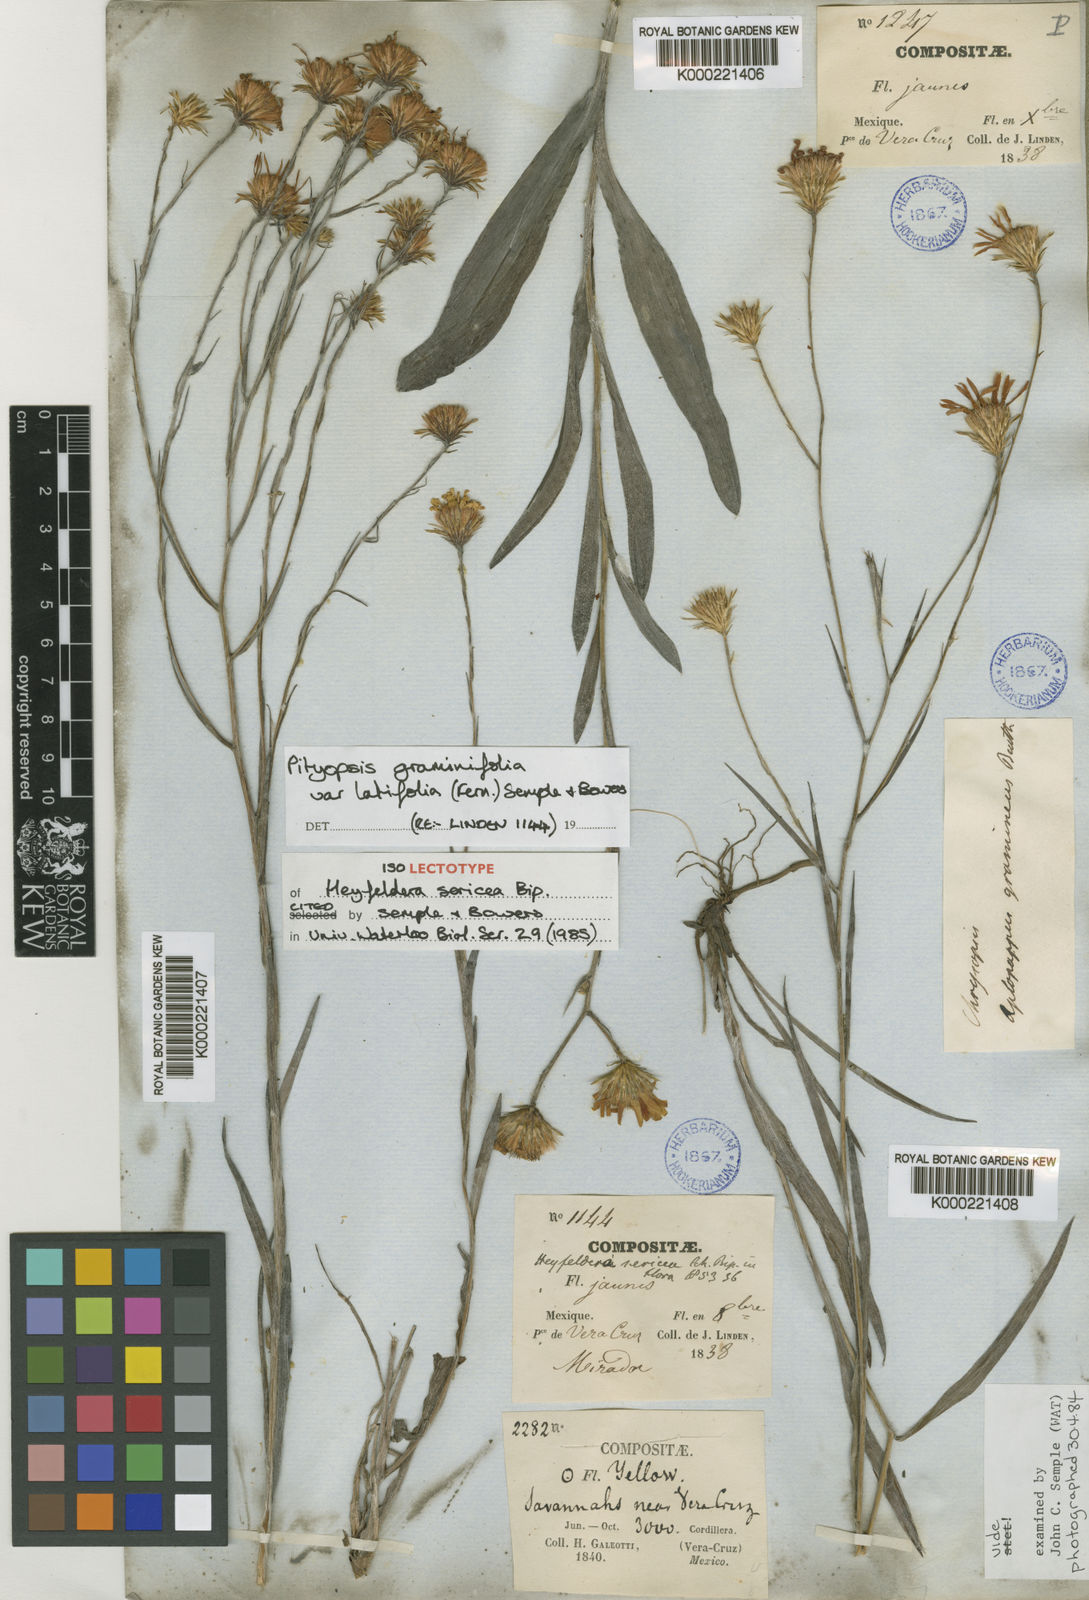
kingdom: Plantae
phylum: Tracheophyta
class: Magnoliopsida
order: Asterales
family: Asteraceae
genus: Pityopsis
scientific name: Pityopsis latifolia
